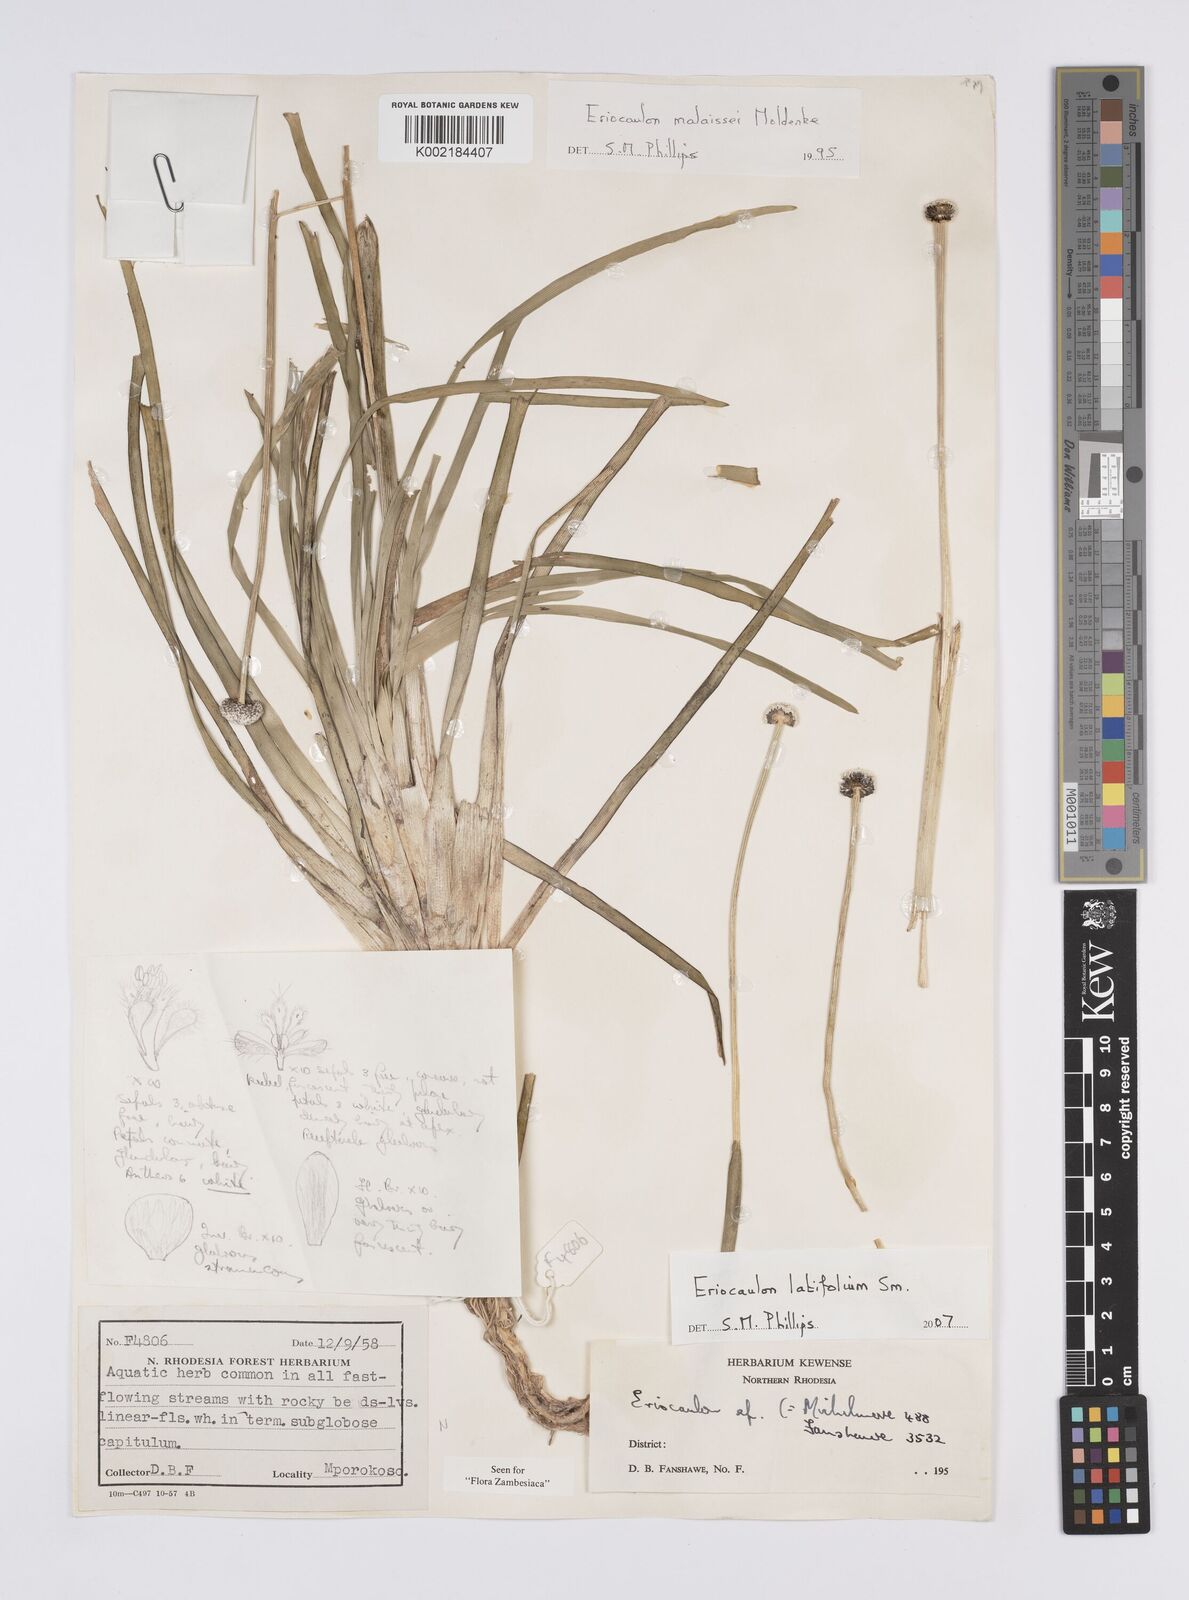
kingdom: Plantae
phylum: Tracheophyta
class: Liliopsida
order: Poales
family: Eriocaulaceae
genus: Eriocaulon
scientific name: Eriocaulon latifolium
